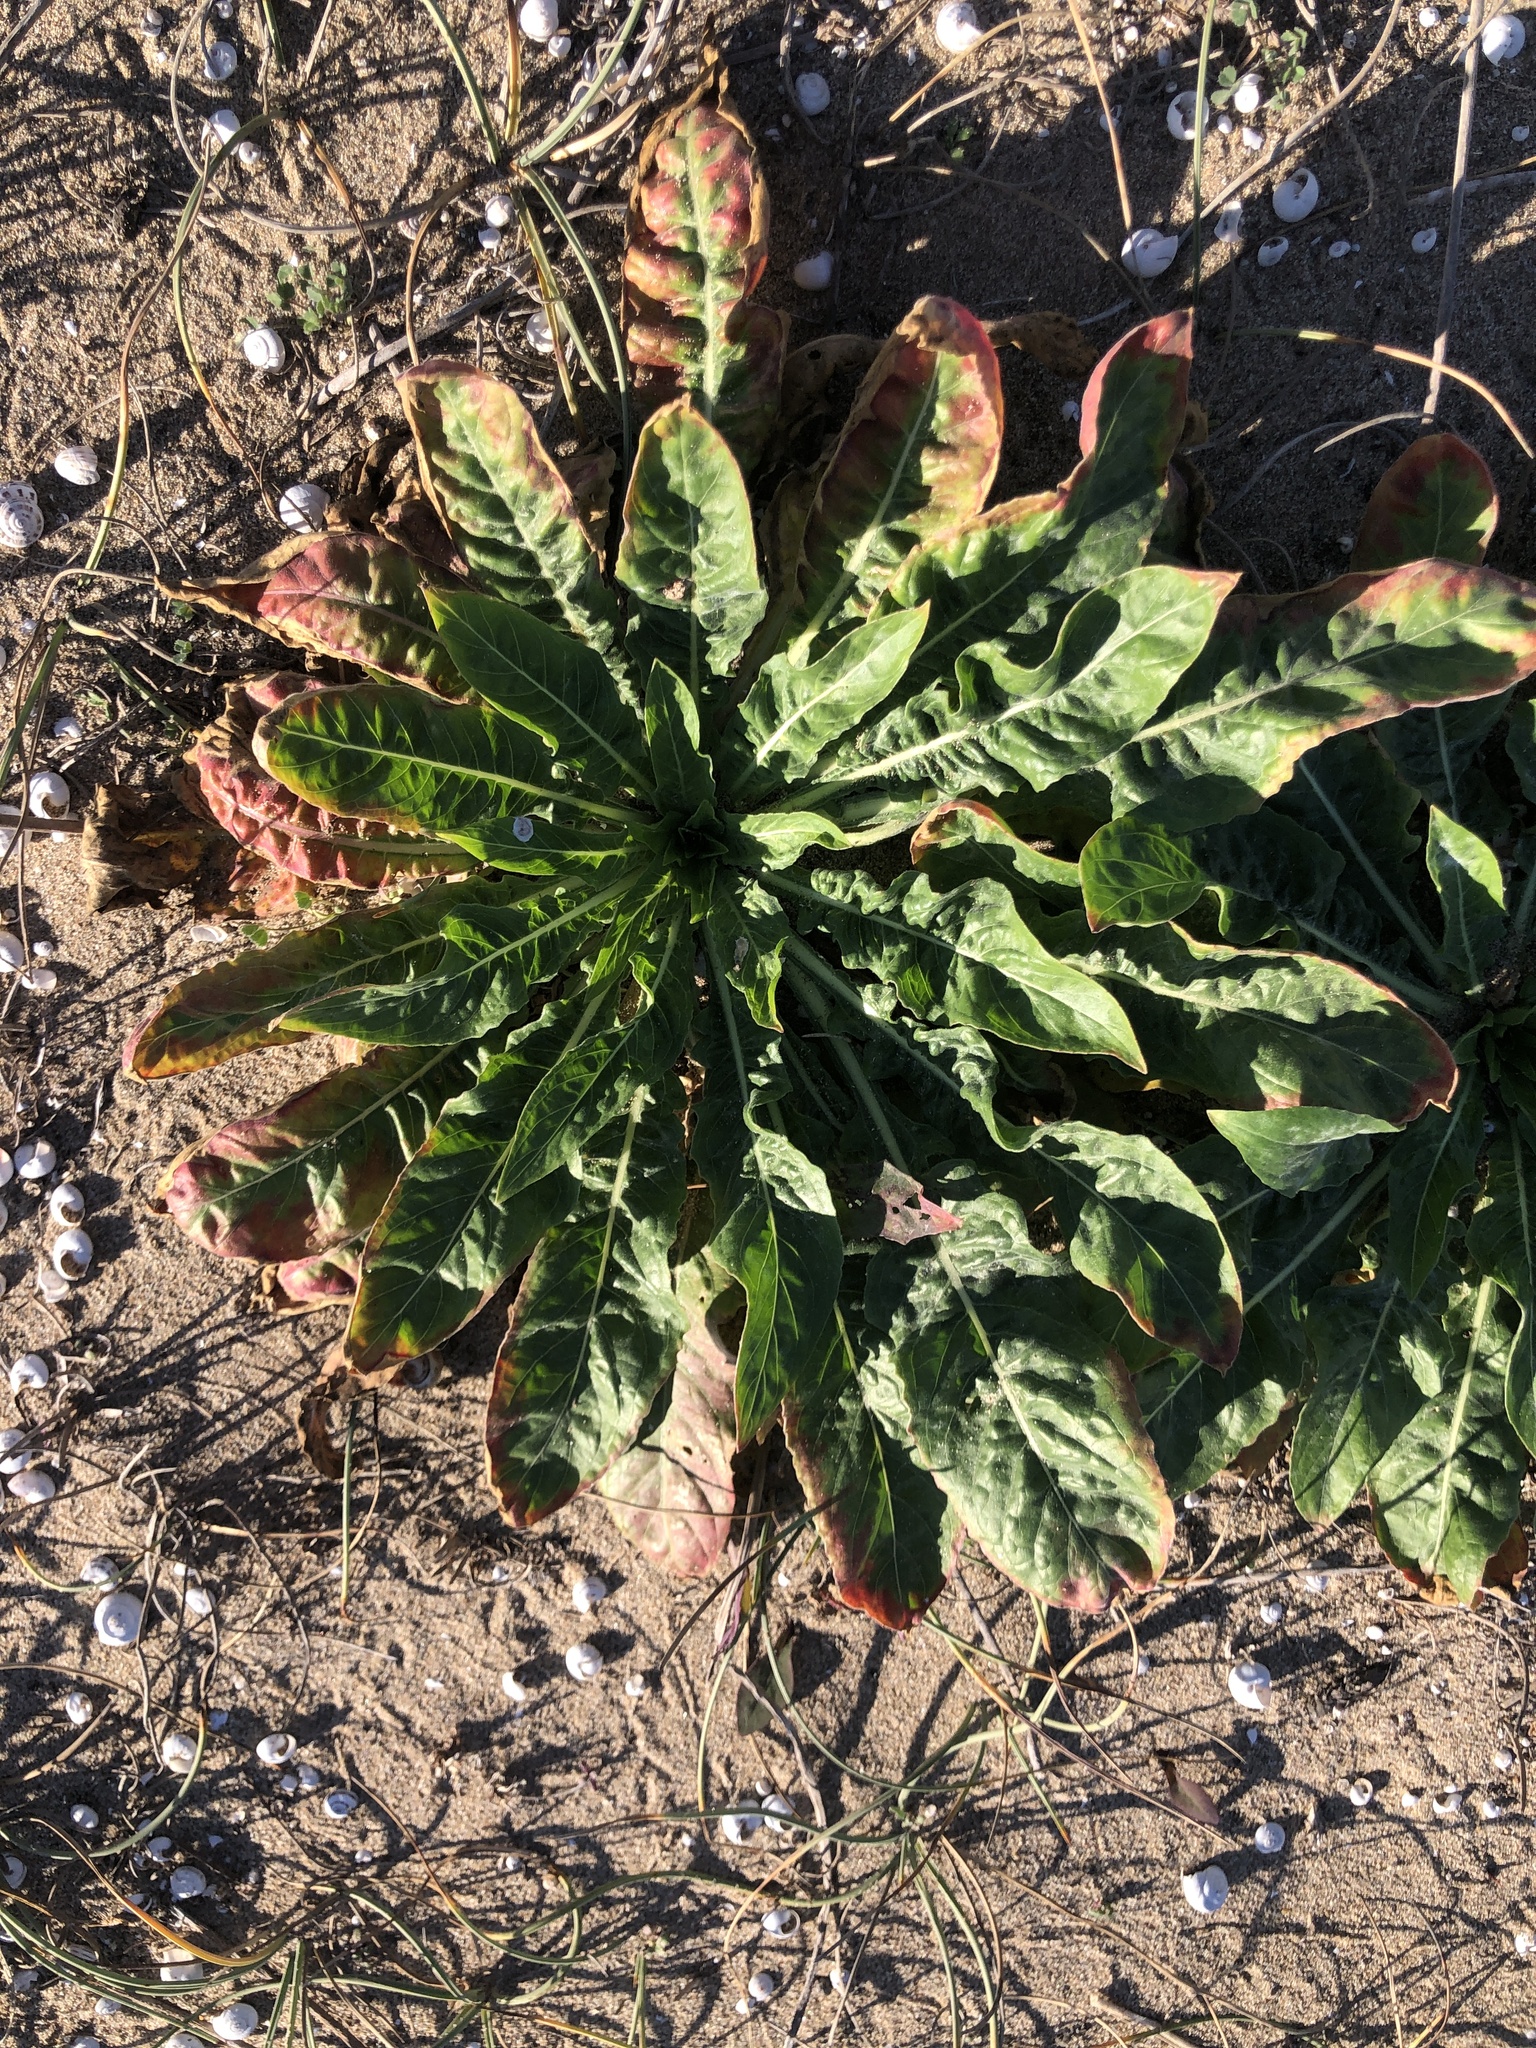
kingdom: Plantae
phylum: Tracheophyta
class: Magnoliopsida
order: Myrtales
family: Onagraceae
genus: Oenothera
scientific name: Oenothera glazioviana
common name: Large-flowered evening-primrose
